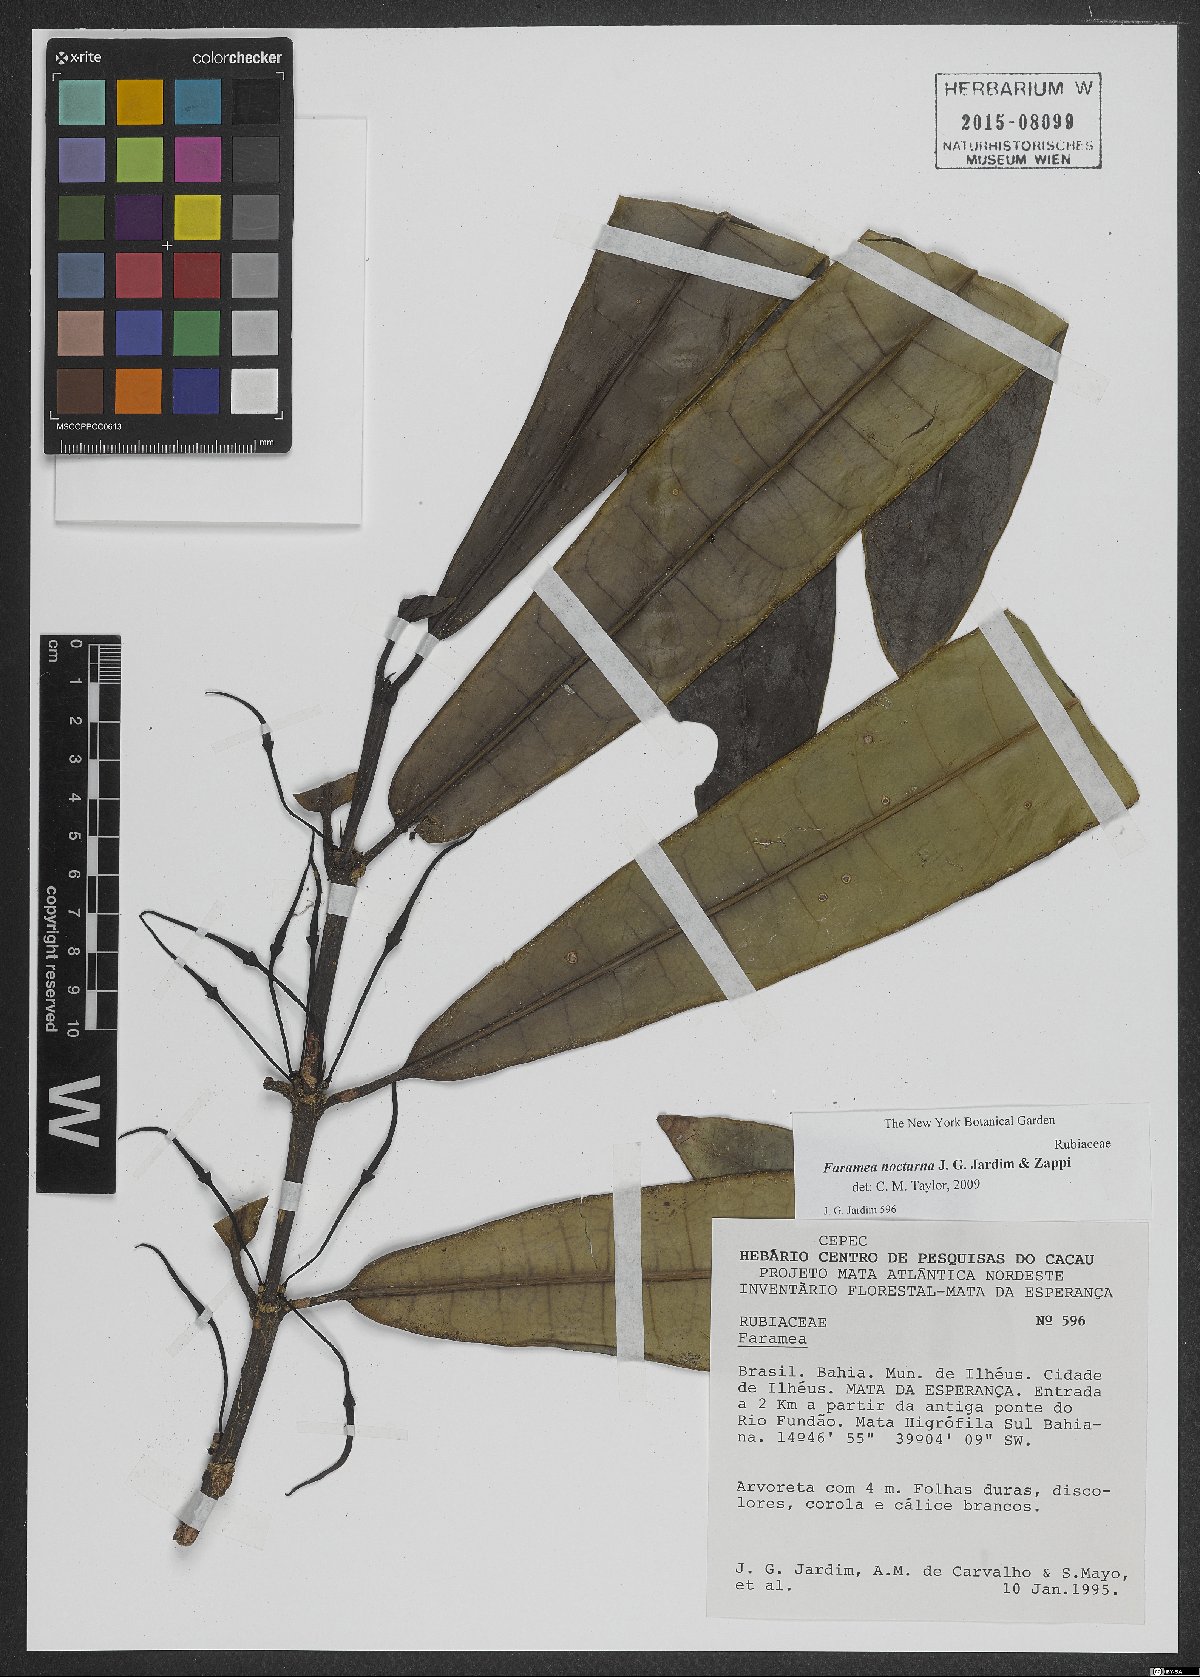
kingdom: Plantae
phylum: Tracheophyta
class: Magnoliopsida
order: Gentianales
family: Rubiaceae
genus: Faramea
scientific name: Faramea nocturna
